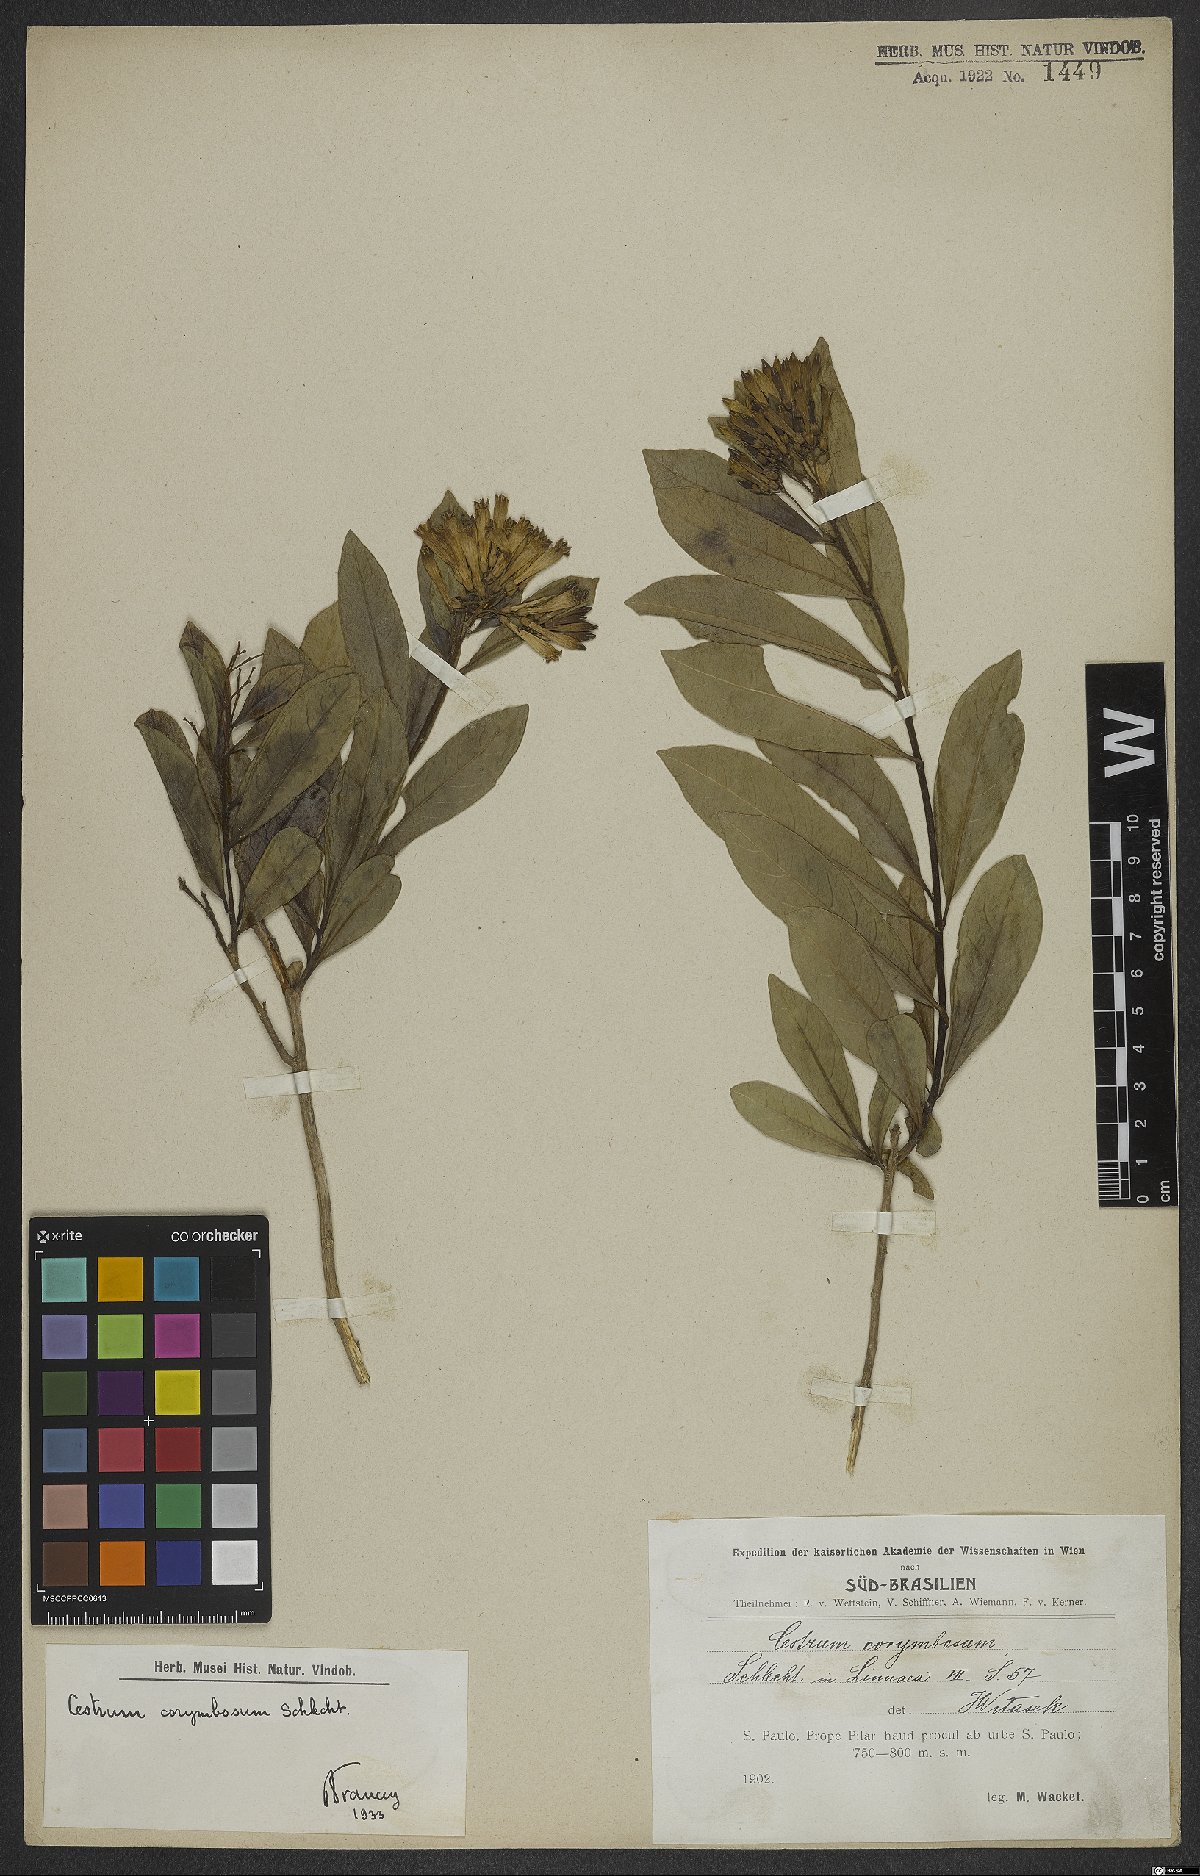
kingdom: Plantae
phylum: Tracheophyta
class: Magnoliopsida
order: Solanales
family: Solanaceae
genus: Cestrum
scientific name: Cestrum corymbosum
